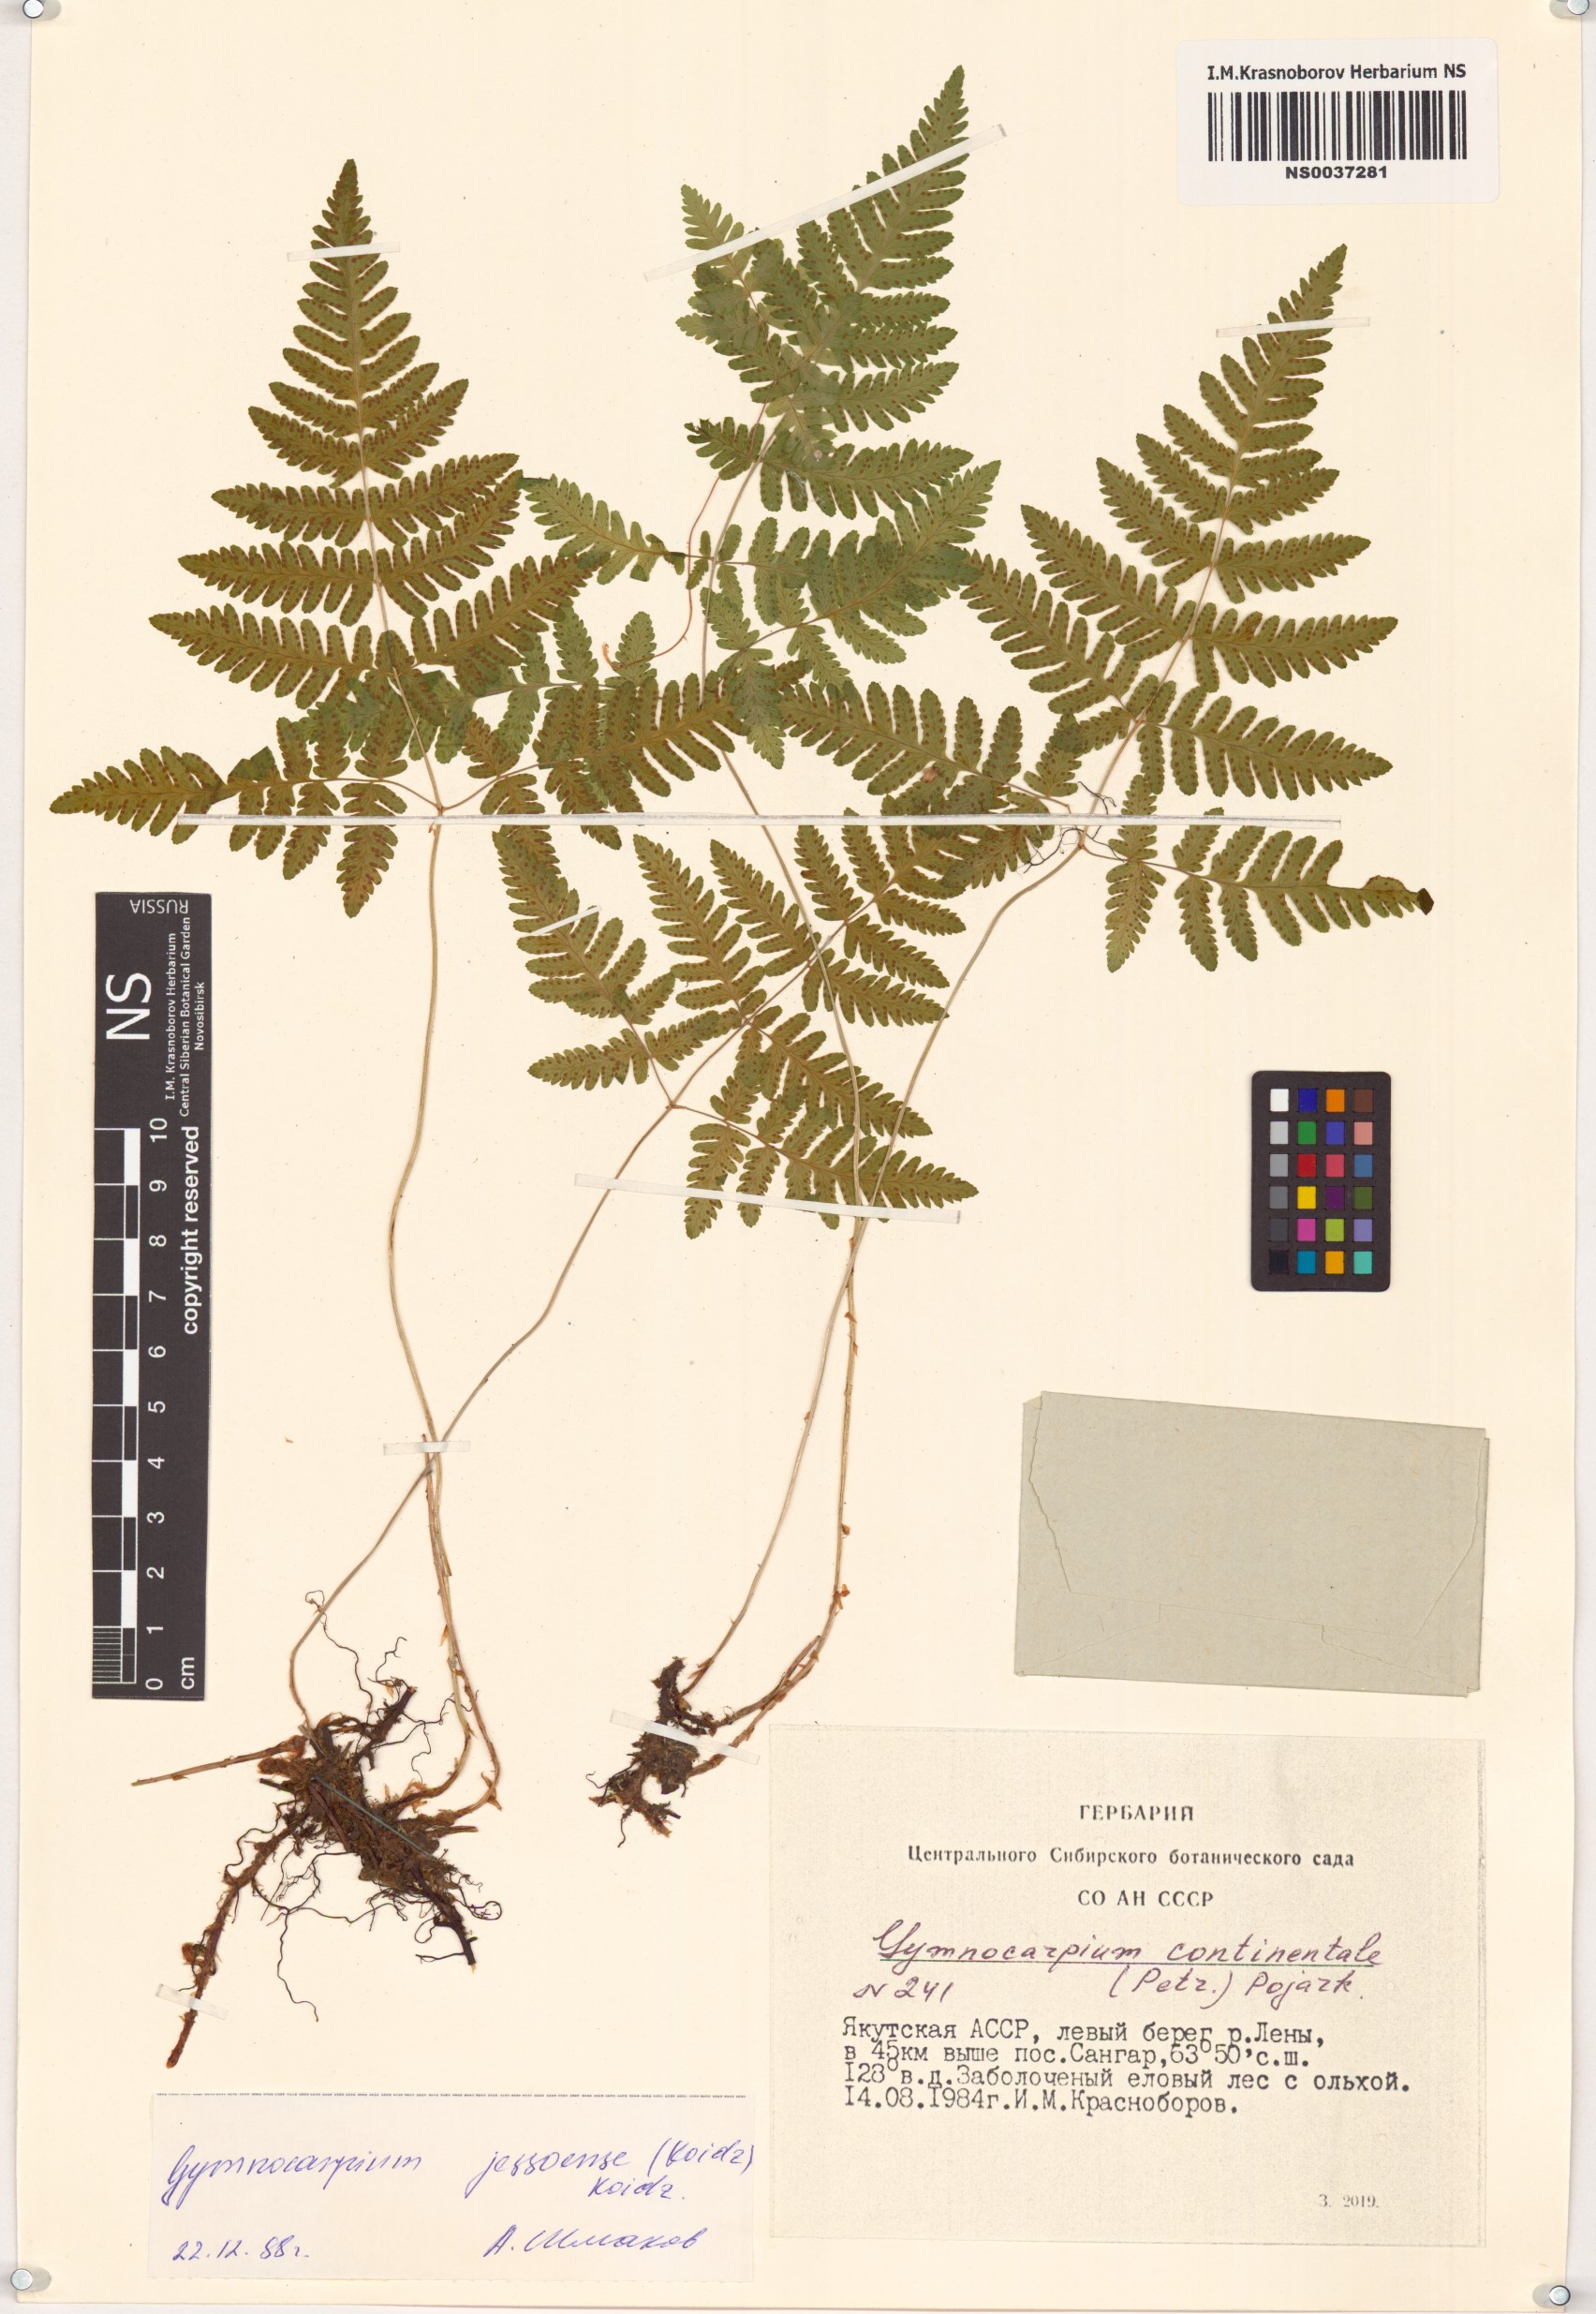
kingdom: Plantae
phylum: Tracheophyta
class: Polypodiopsida
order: Polypodiales
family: Cystopteridaceae
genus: Gymnocarpium
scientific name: Gymnocarpium jessoense
